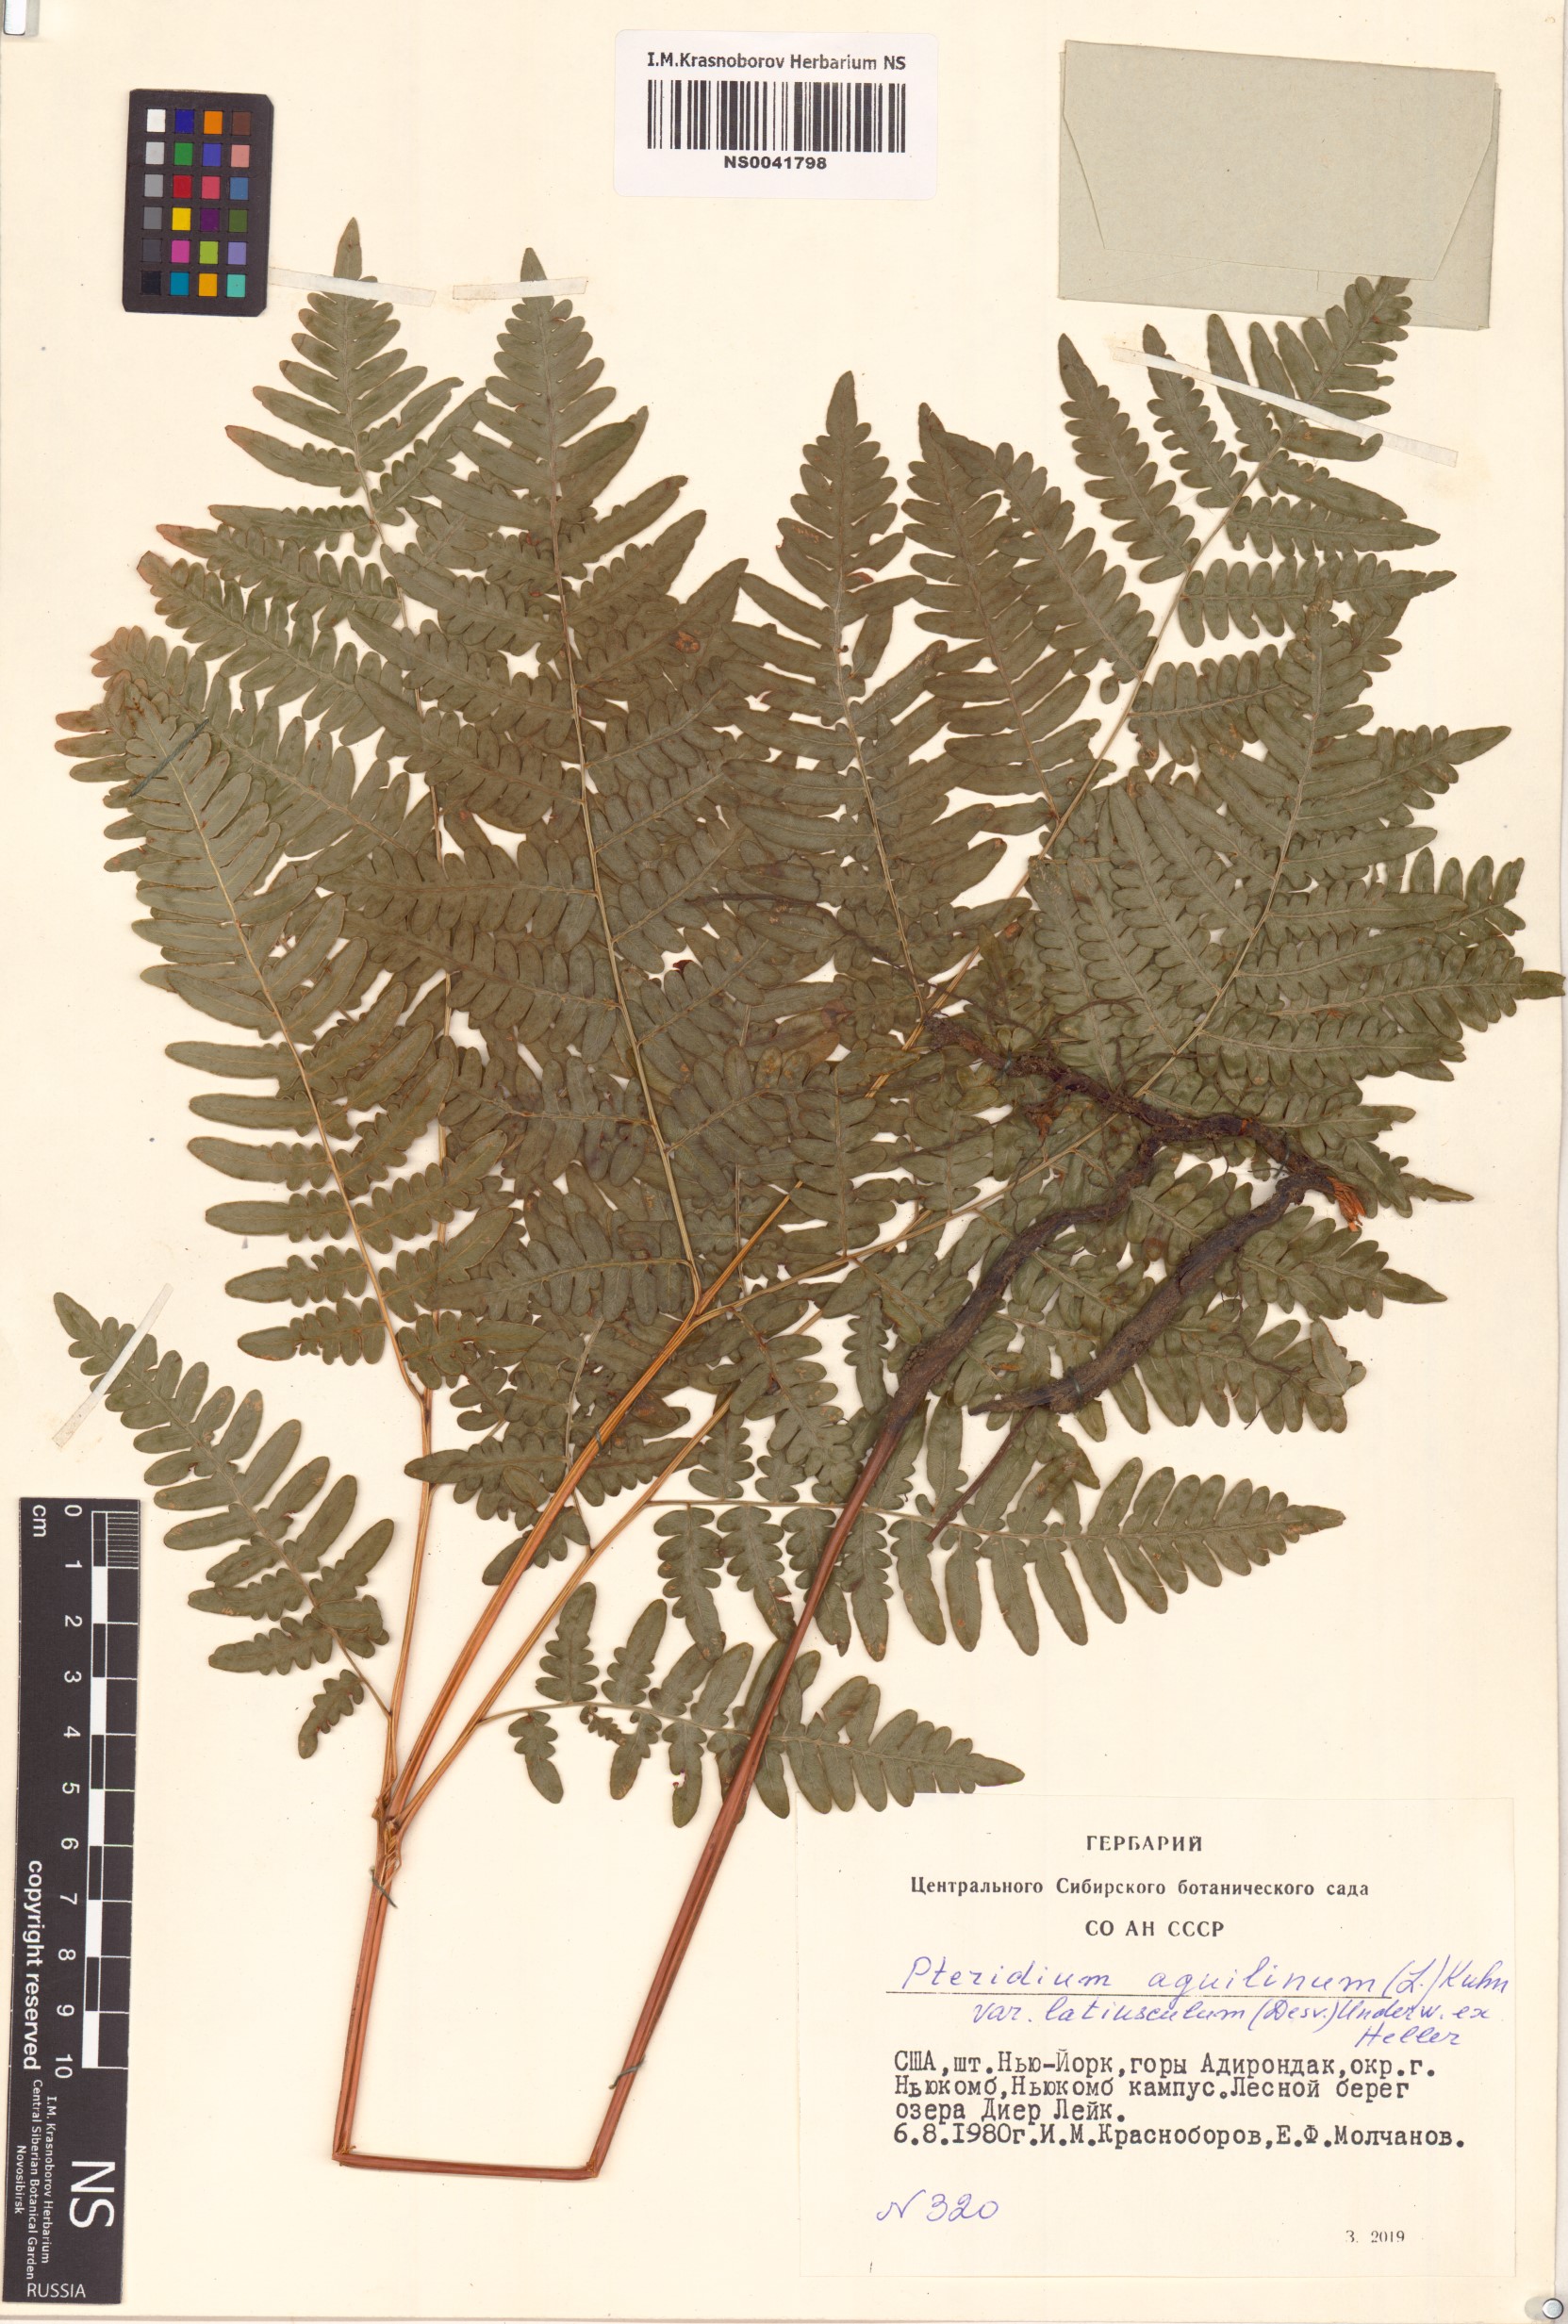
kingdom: Plantae
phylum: Tracheophyta
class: Polypodiopsida
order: Polypodiales
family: Dennstaedtiaceae
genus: Pteridium
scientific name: Pteridium aquilinum
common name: Bracken
